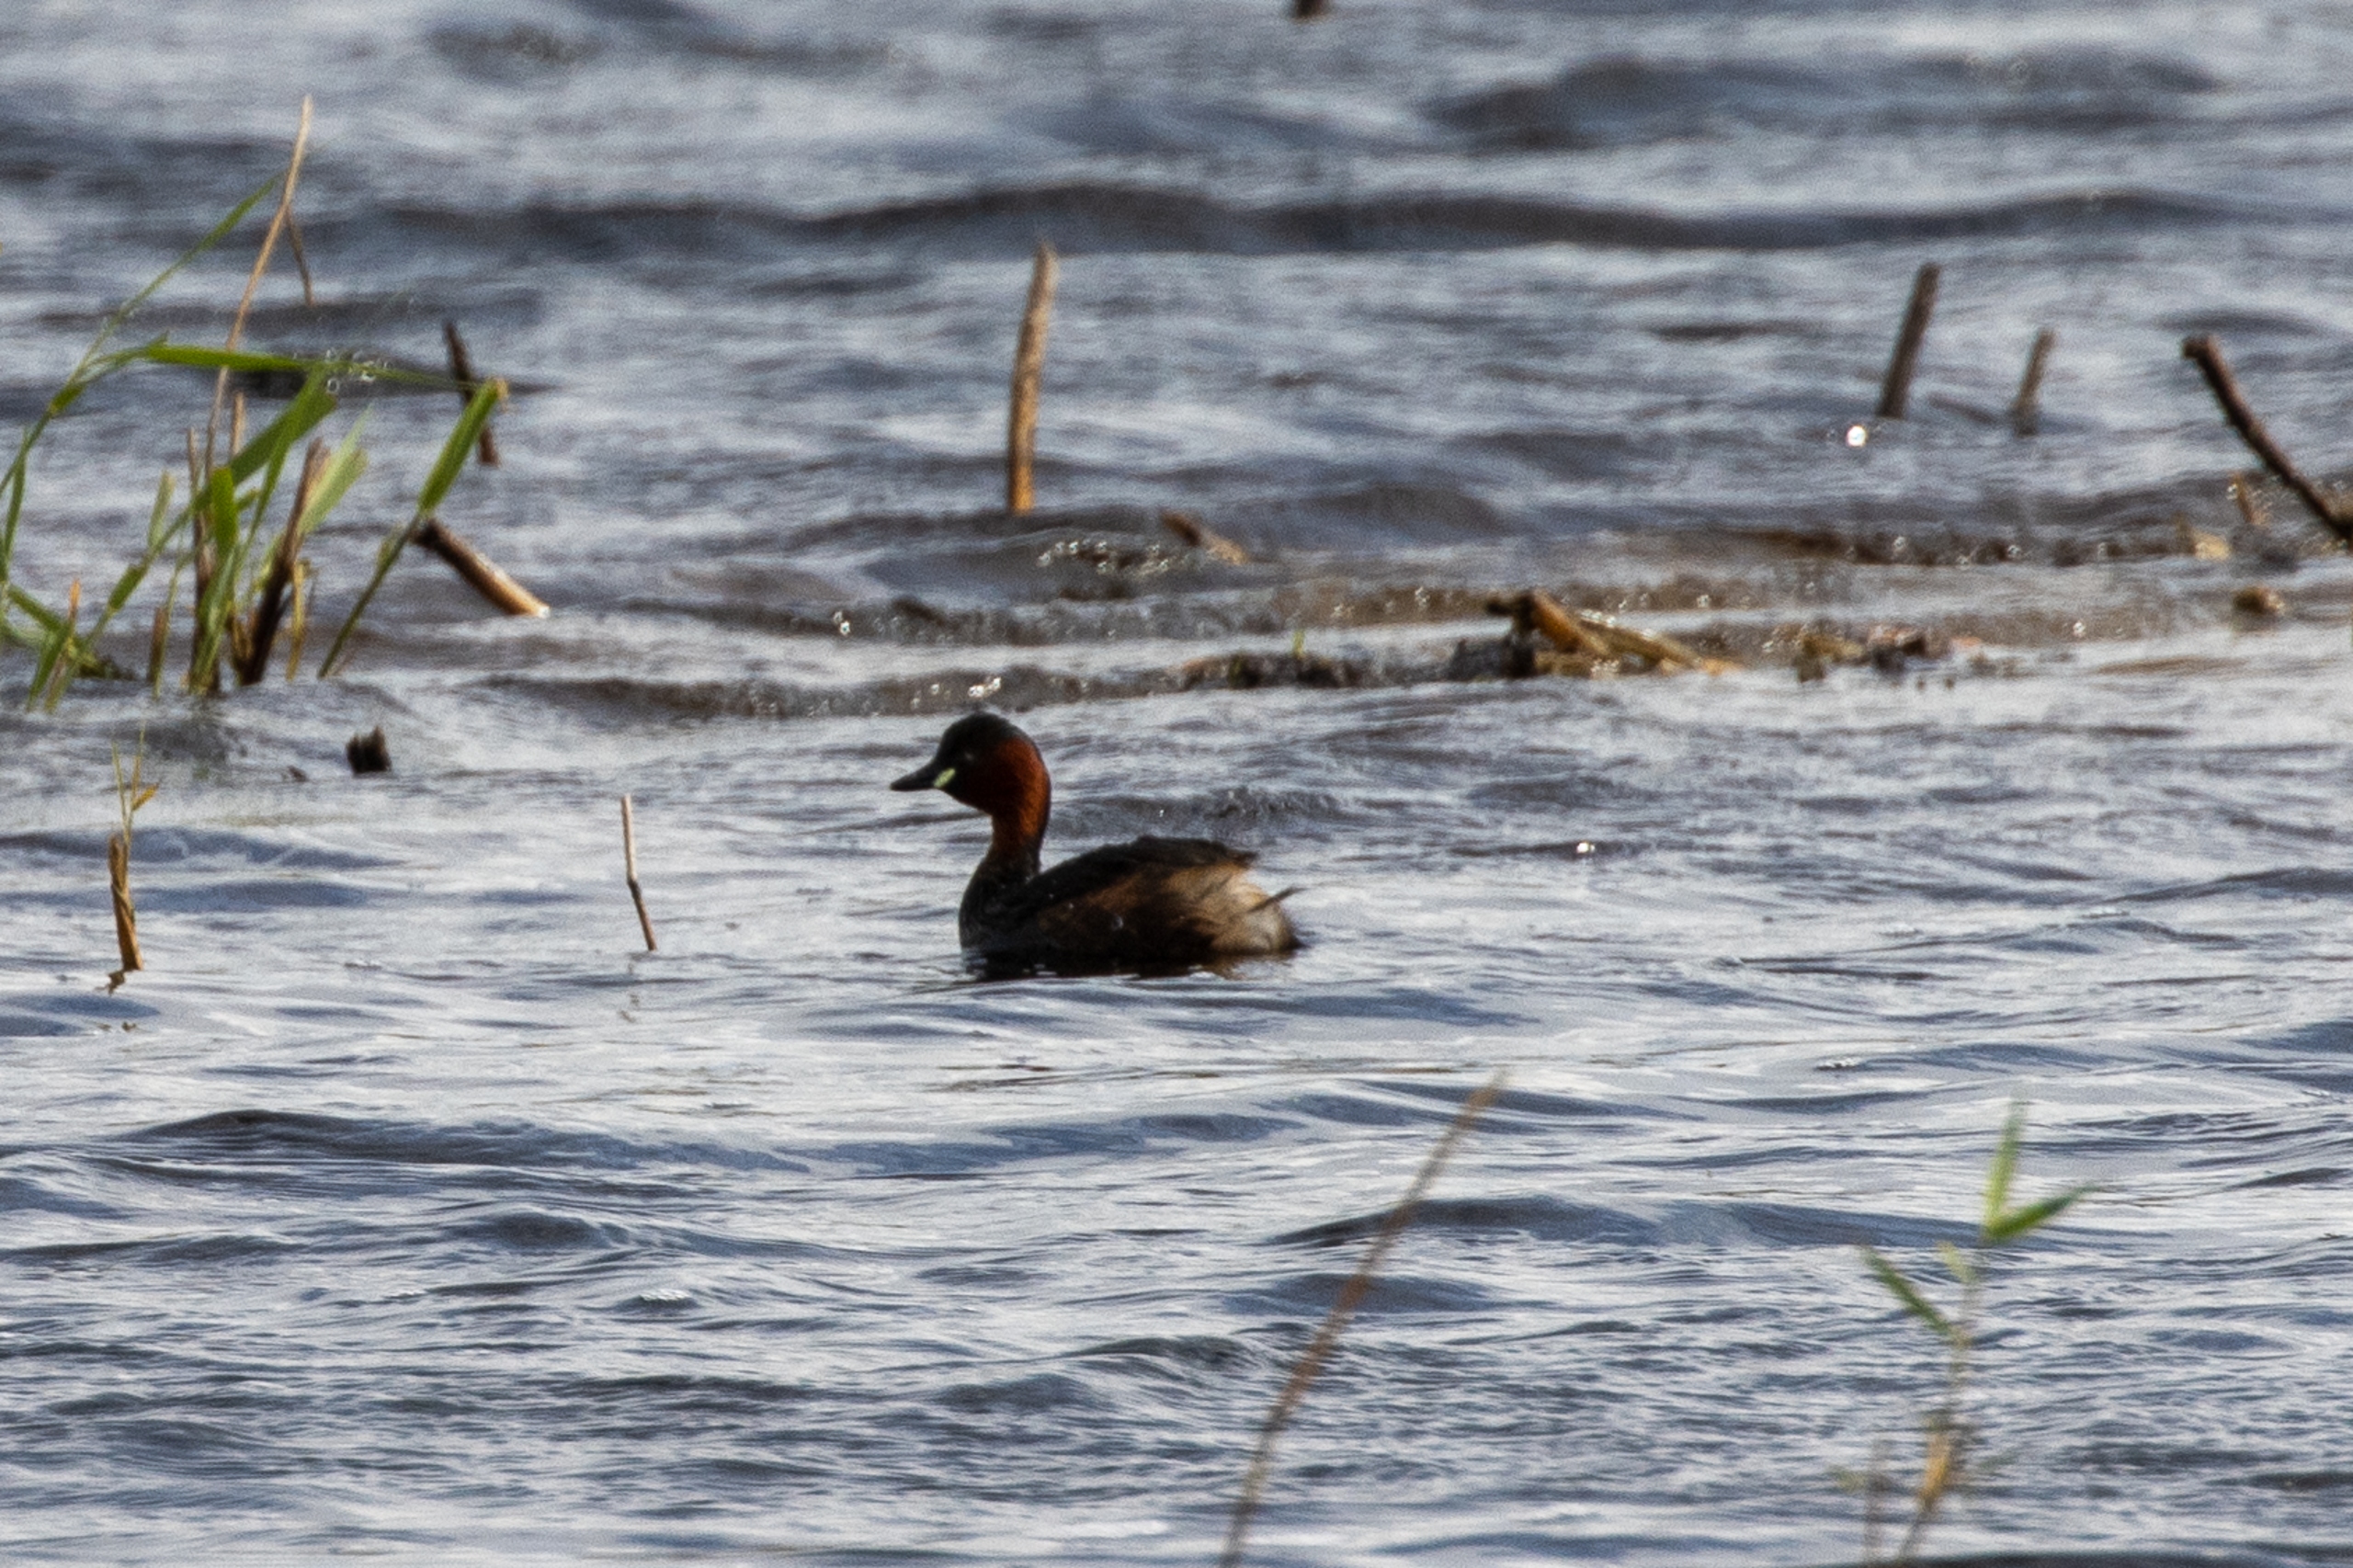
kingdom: Animalia
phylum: Chordata
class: Aves
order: Podicipediformes
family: Podicipedidae
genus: Tachybaptus
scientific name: Tachybaptus ruficollis
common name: Lille lappedykker
